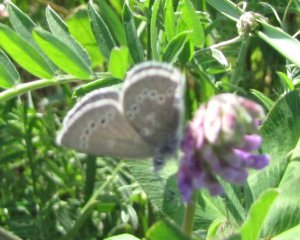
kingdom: Animalia
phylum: Arthropoda
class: Insecta
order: Lepidoptera
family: Lycaenidae
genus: Glaucopsyche
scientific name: Glaucopsyche lygdamus
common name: Silvery Blue
